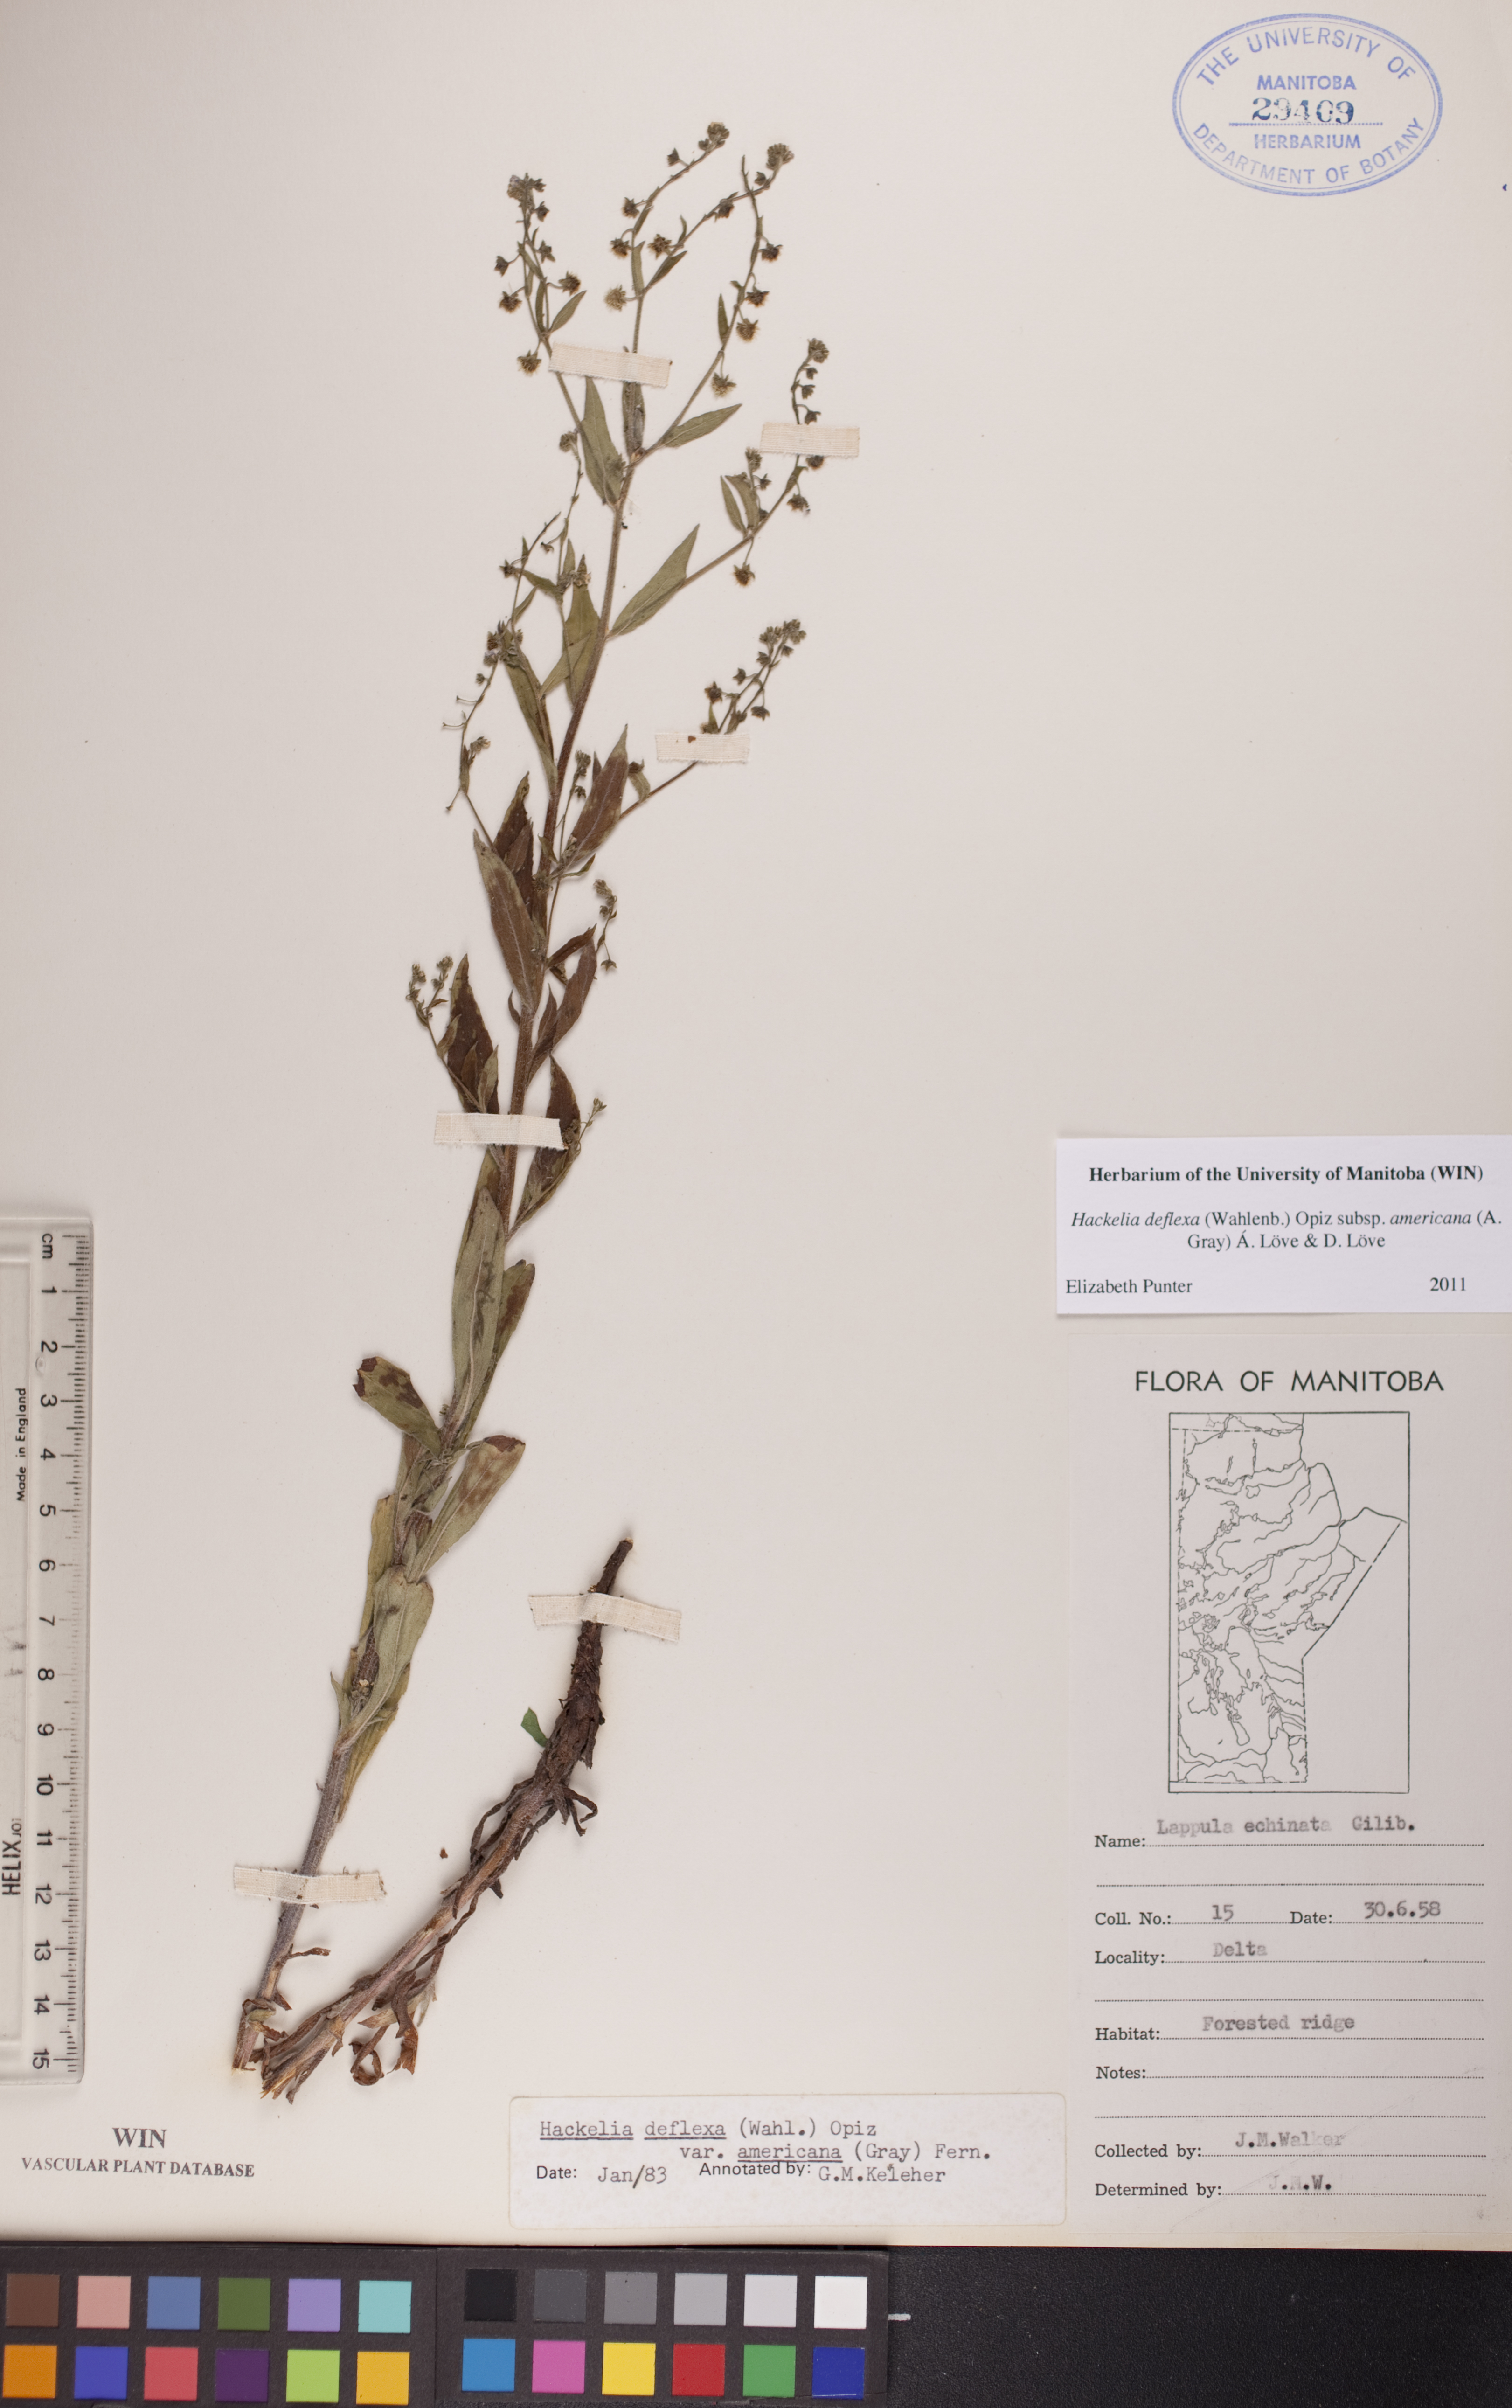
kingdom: Plantae
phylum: Tracheophyta
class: Magnoliopsida
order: Boraginales
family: Boraginaceae
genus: Hackelia
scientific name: Hackelia deflexa
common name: Nodding stickseed
